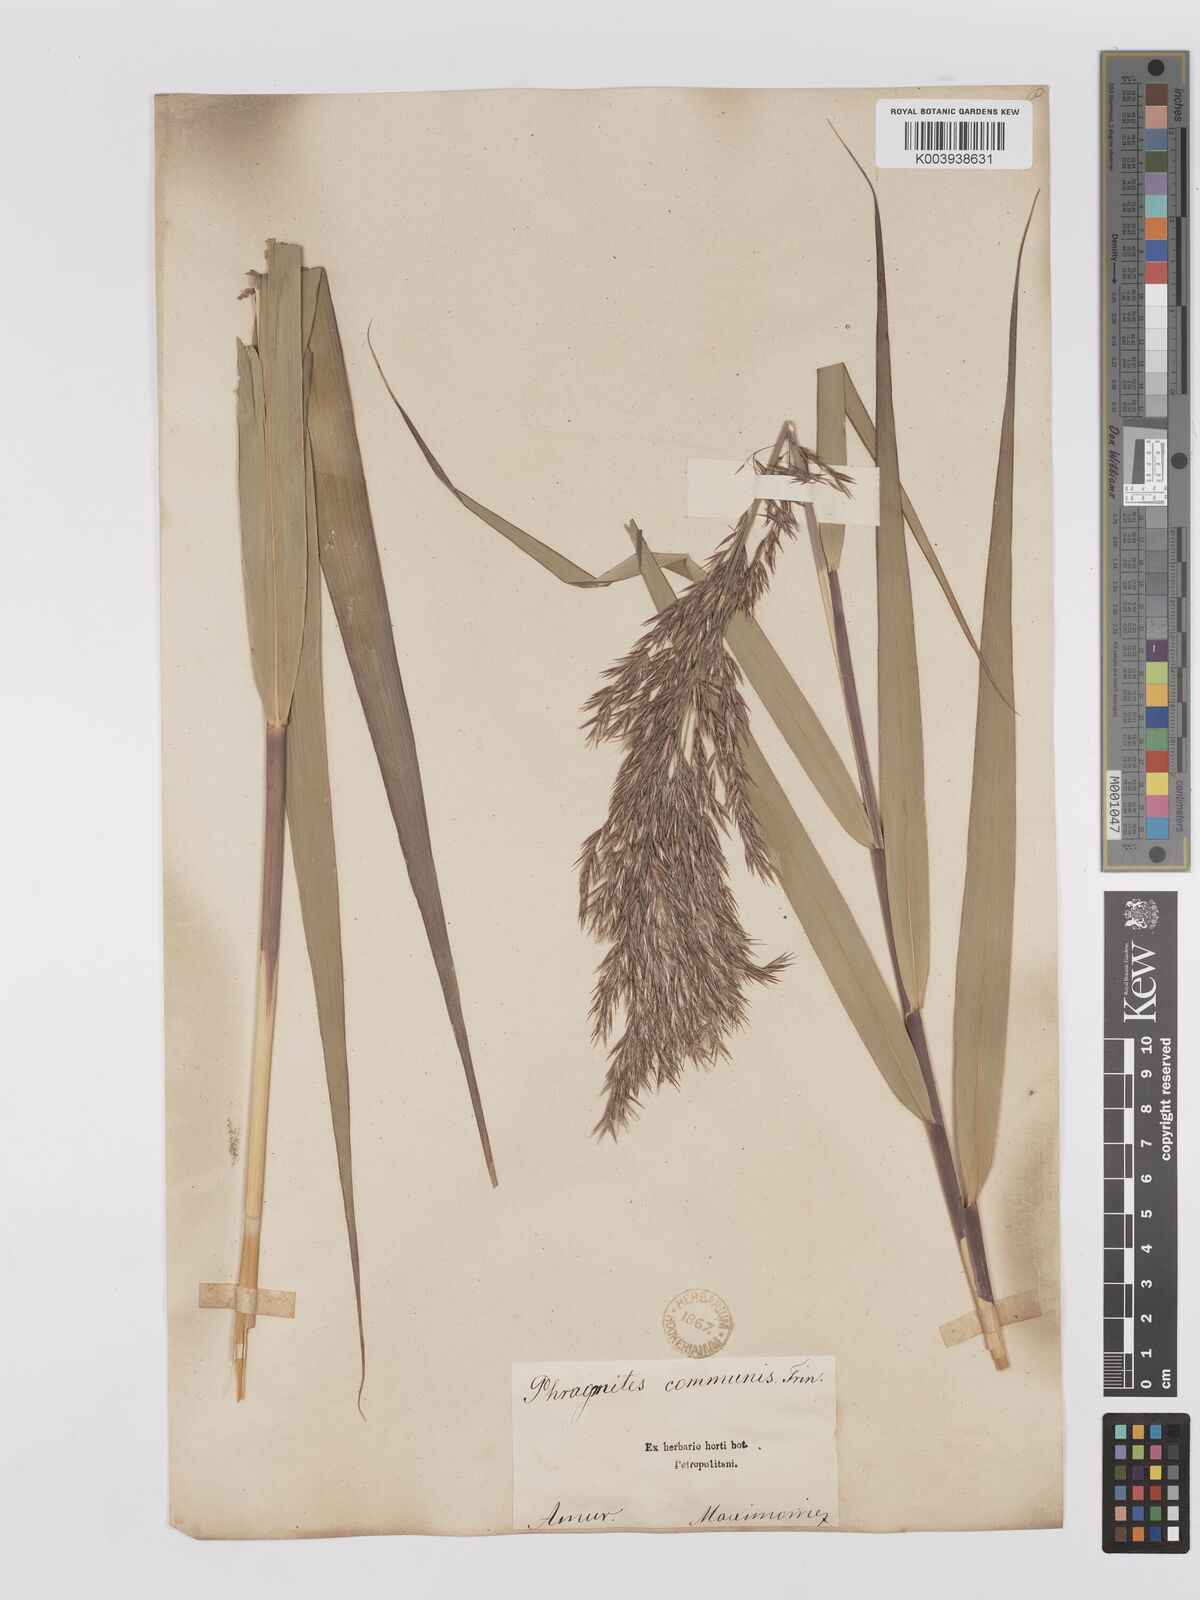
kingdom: Plantae
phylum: Tracheophyta
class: Liliopsida
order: Poales
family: Poaceae
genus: Phragmites
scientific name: Phragmites australis
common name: Common reed
